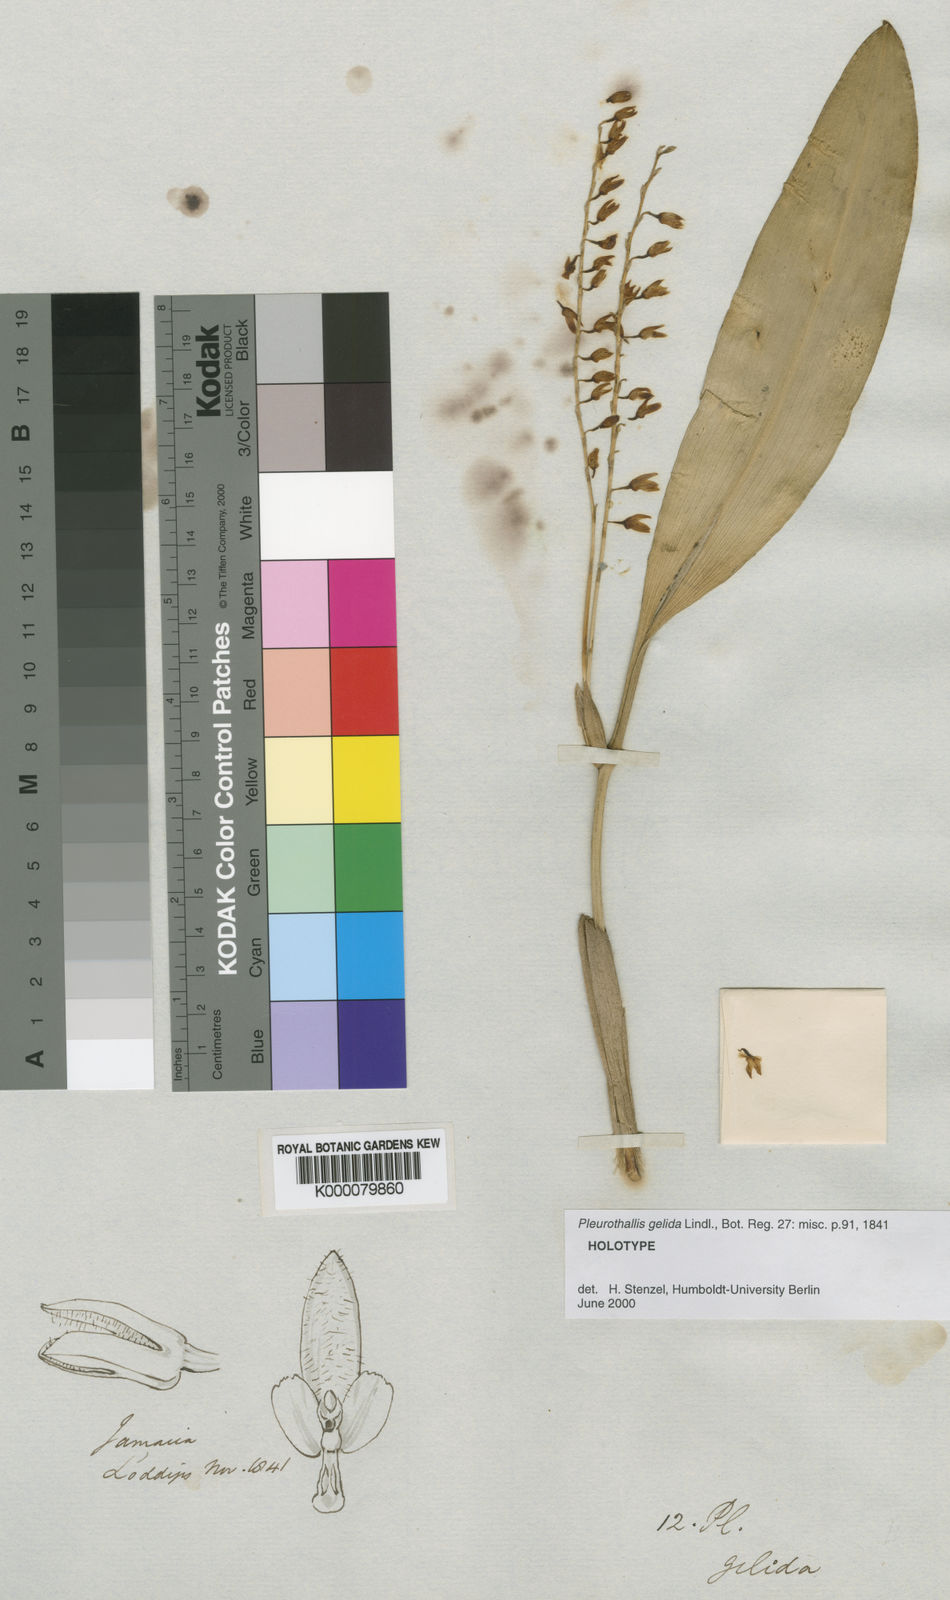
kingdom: Plantae
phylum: Tracheophyta
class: Liliopsida
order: Asparagales
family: Orchidaceae
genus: Stelis
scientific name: Stelis gelida
